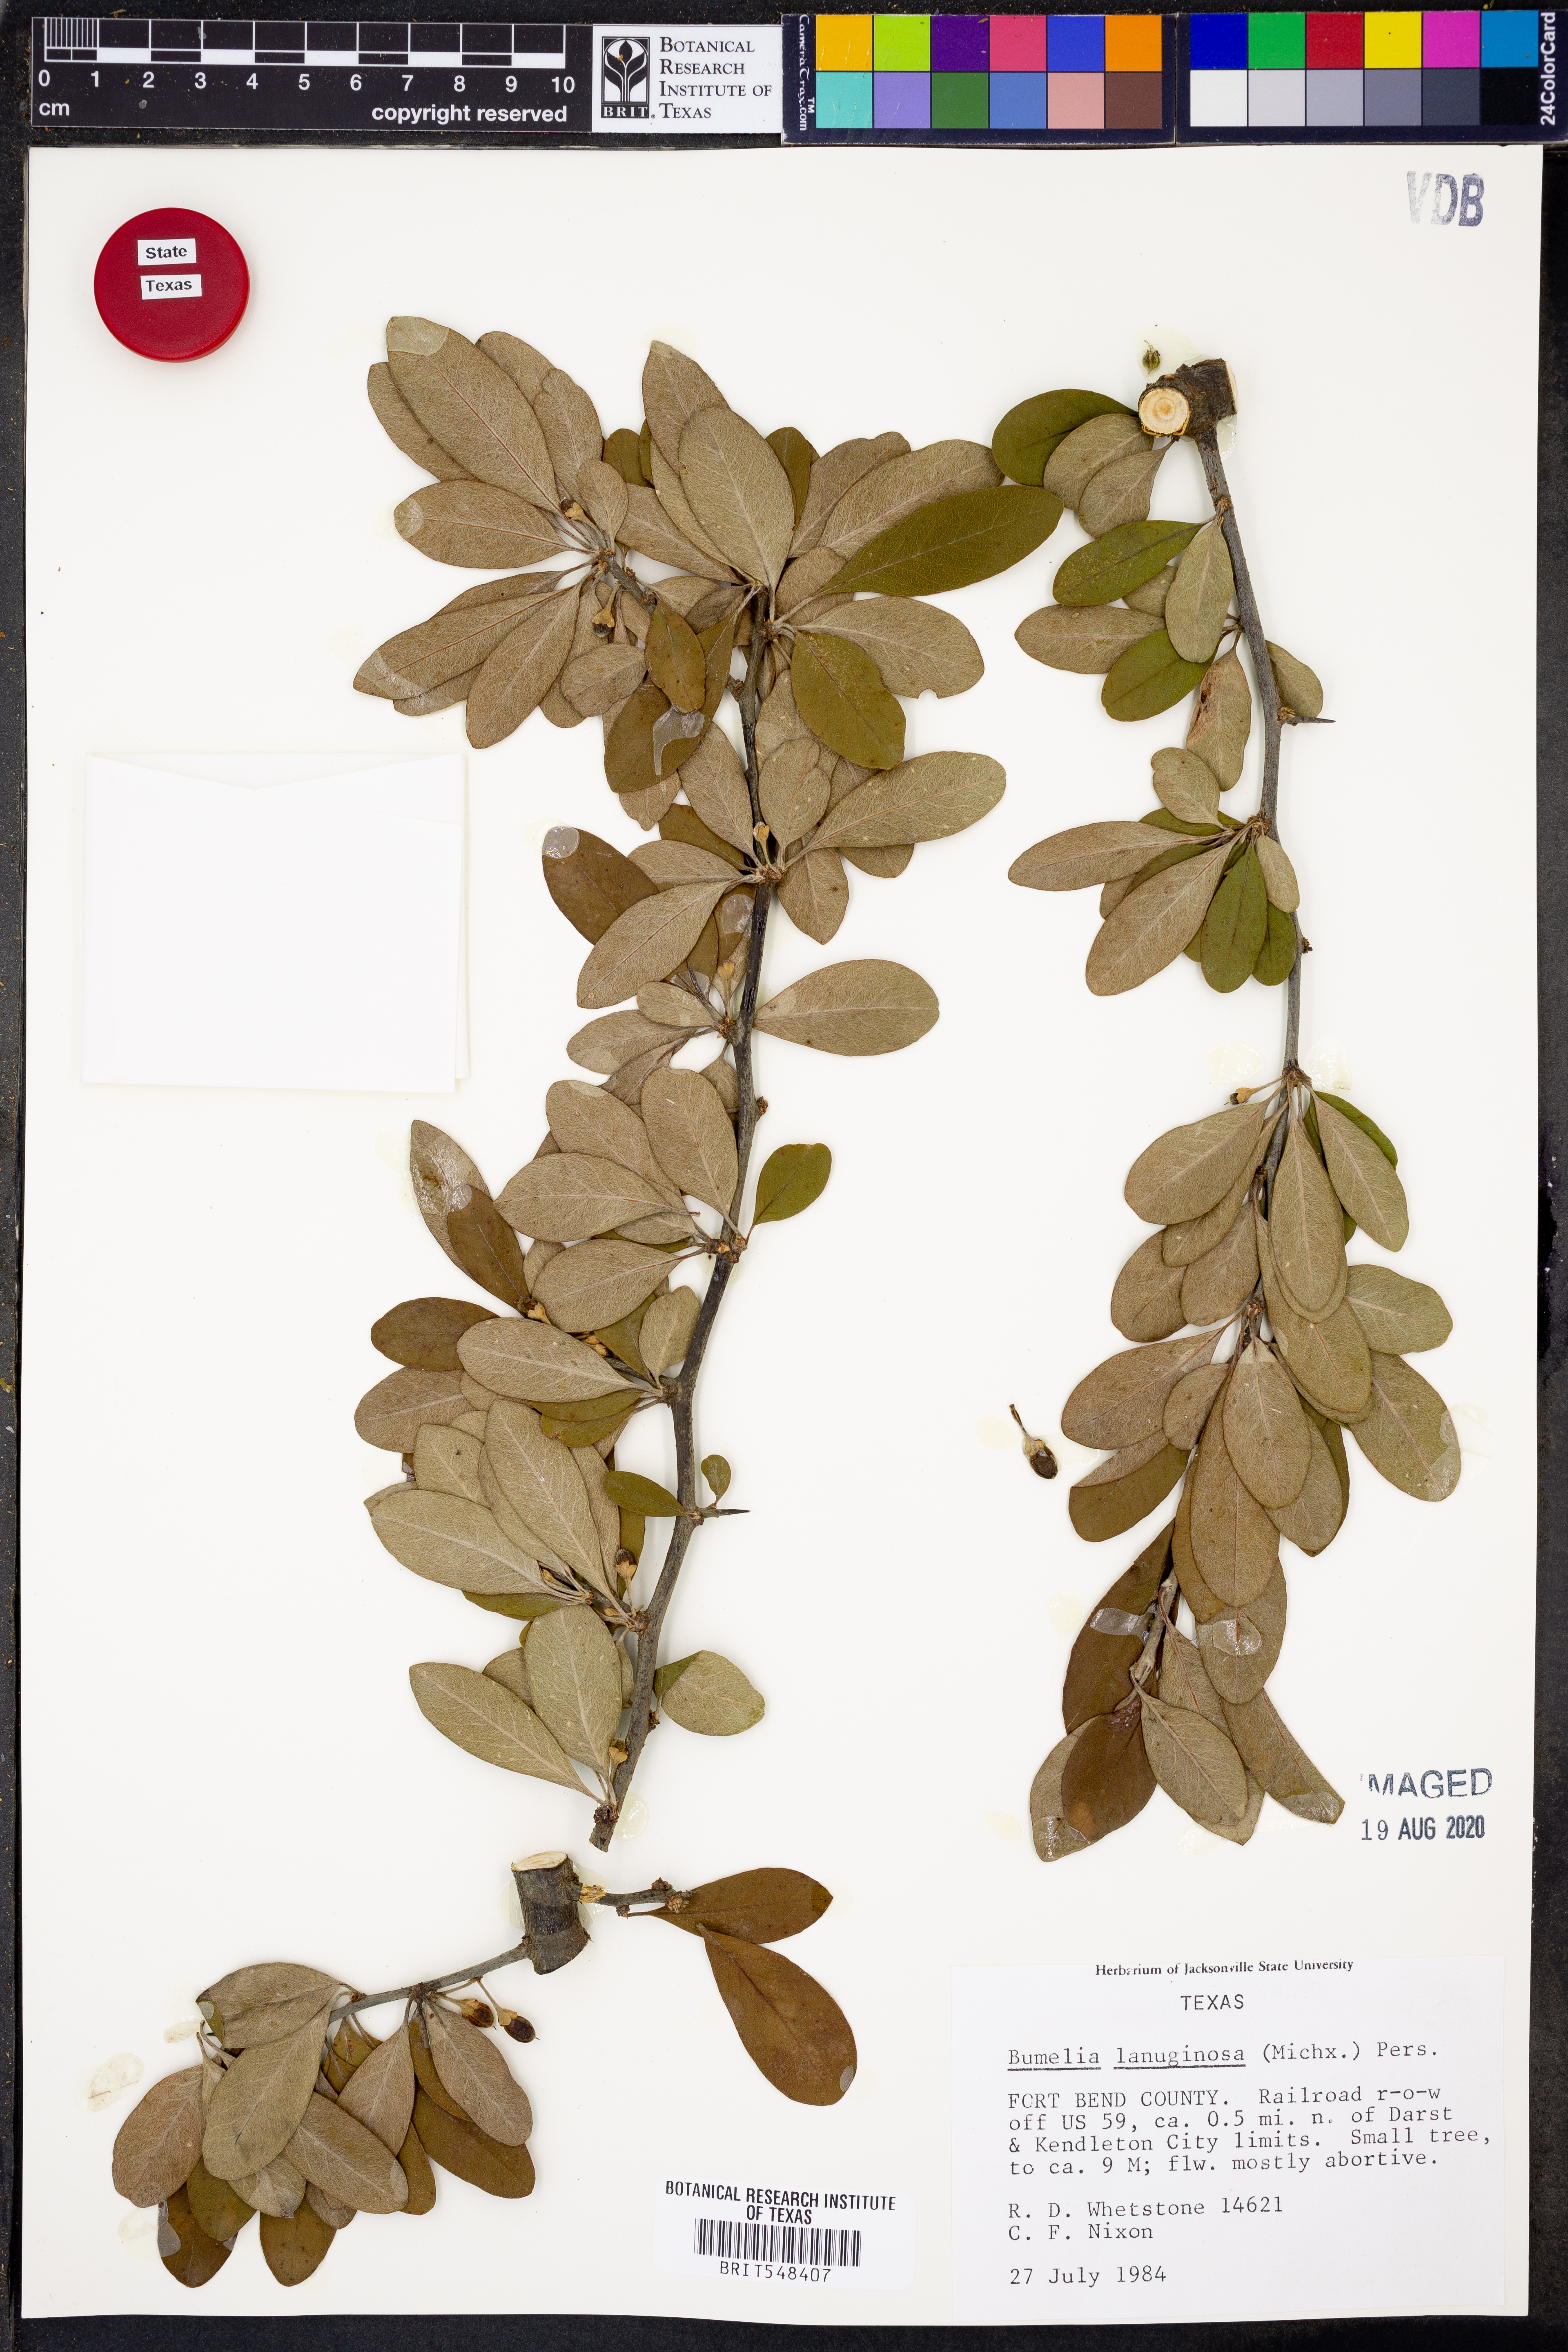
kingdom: Plantae
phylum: Tracheophyta
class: Magnoliopsida
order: Ericales
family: Sapotaceae
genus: Sideroxylon
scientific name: Sideroxylon lanuginosum
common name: Chittamwood
